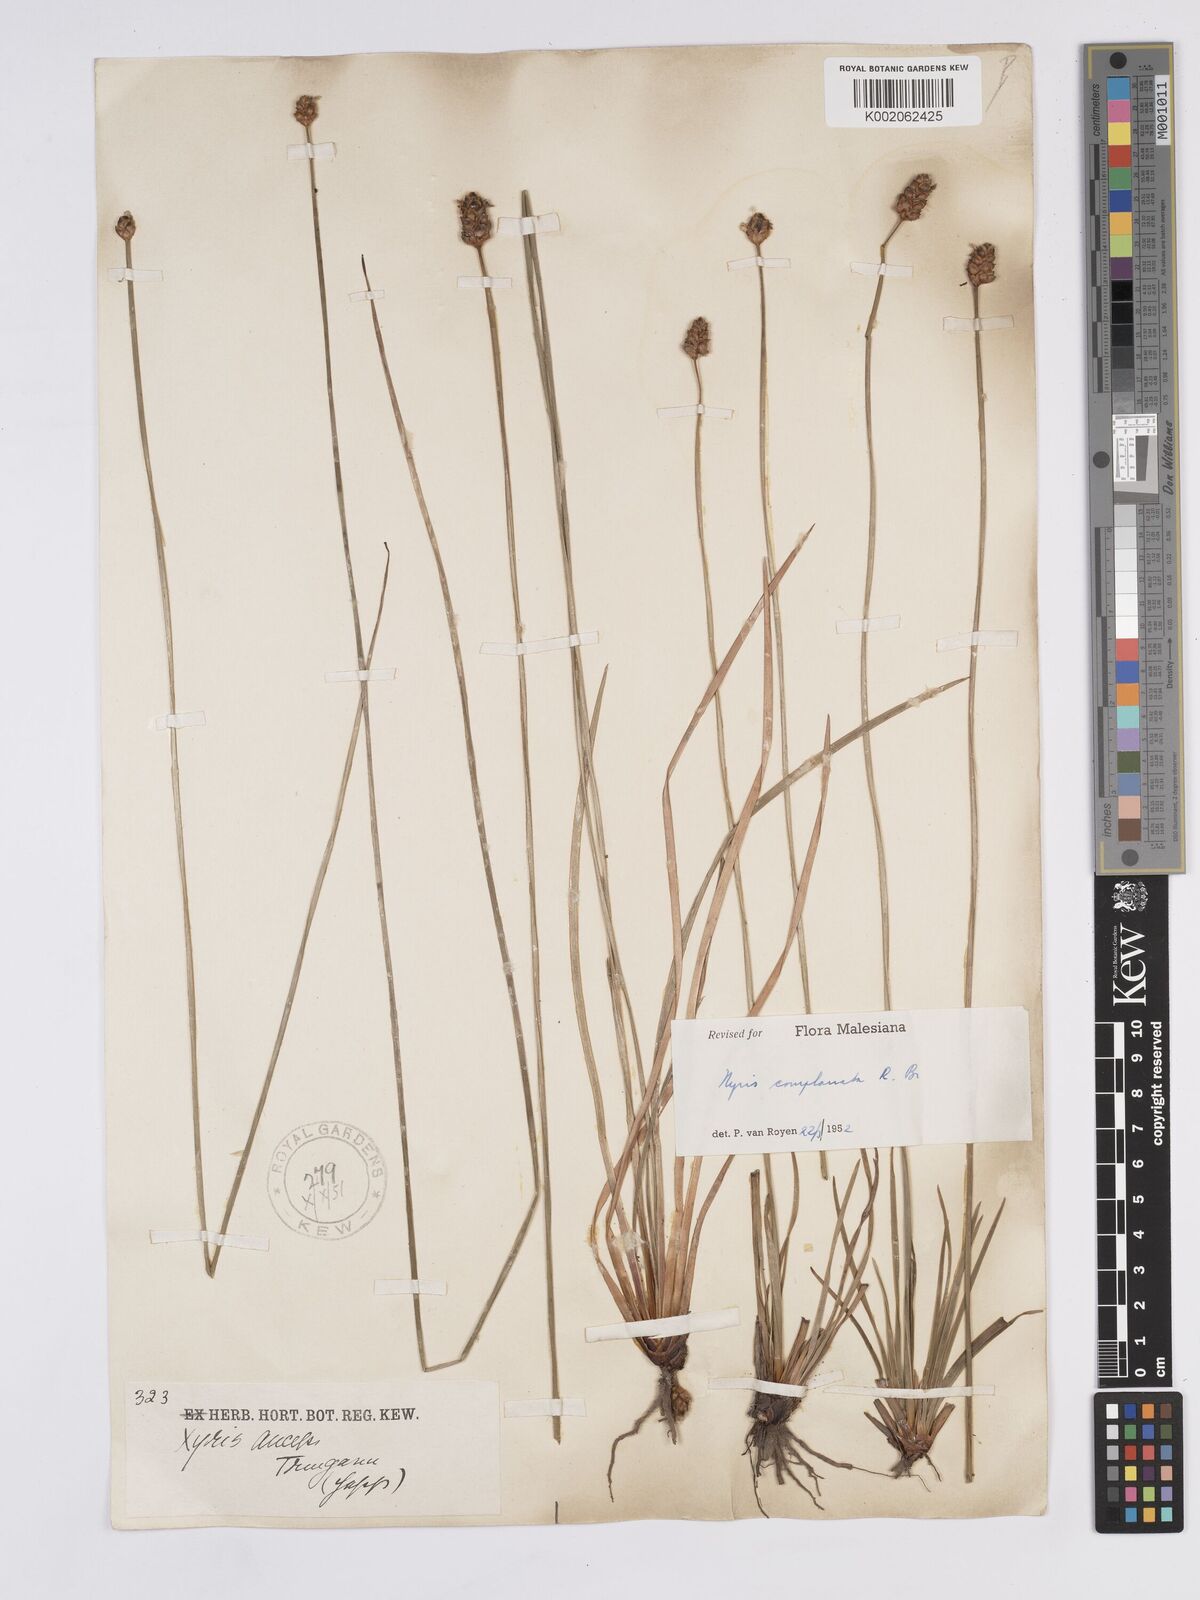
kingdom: Plantae
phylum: Tracheophyta
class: Liliopsida
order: Poales
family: Xyridaceae
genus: Xyris
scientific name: Xyris complanata
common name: Hawai'i yelloweyed grass
